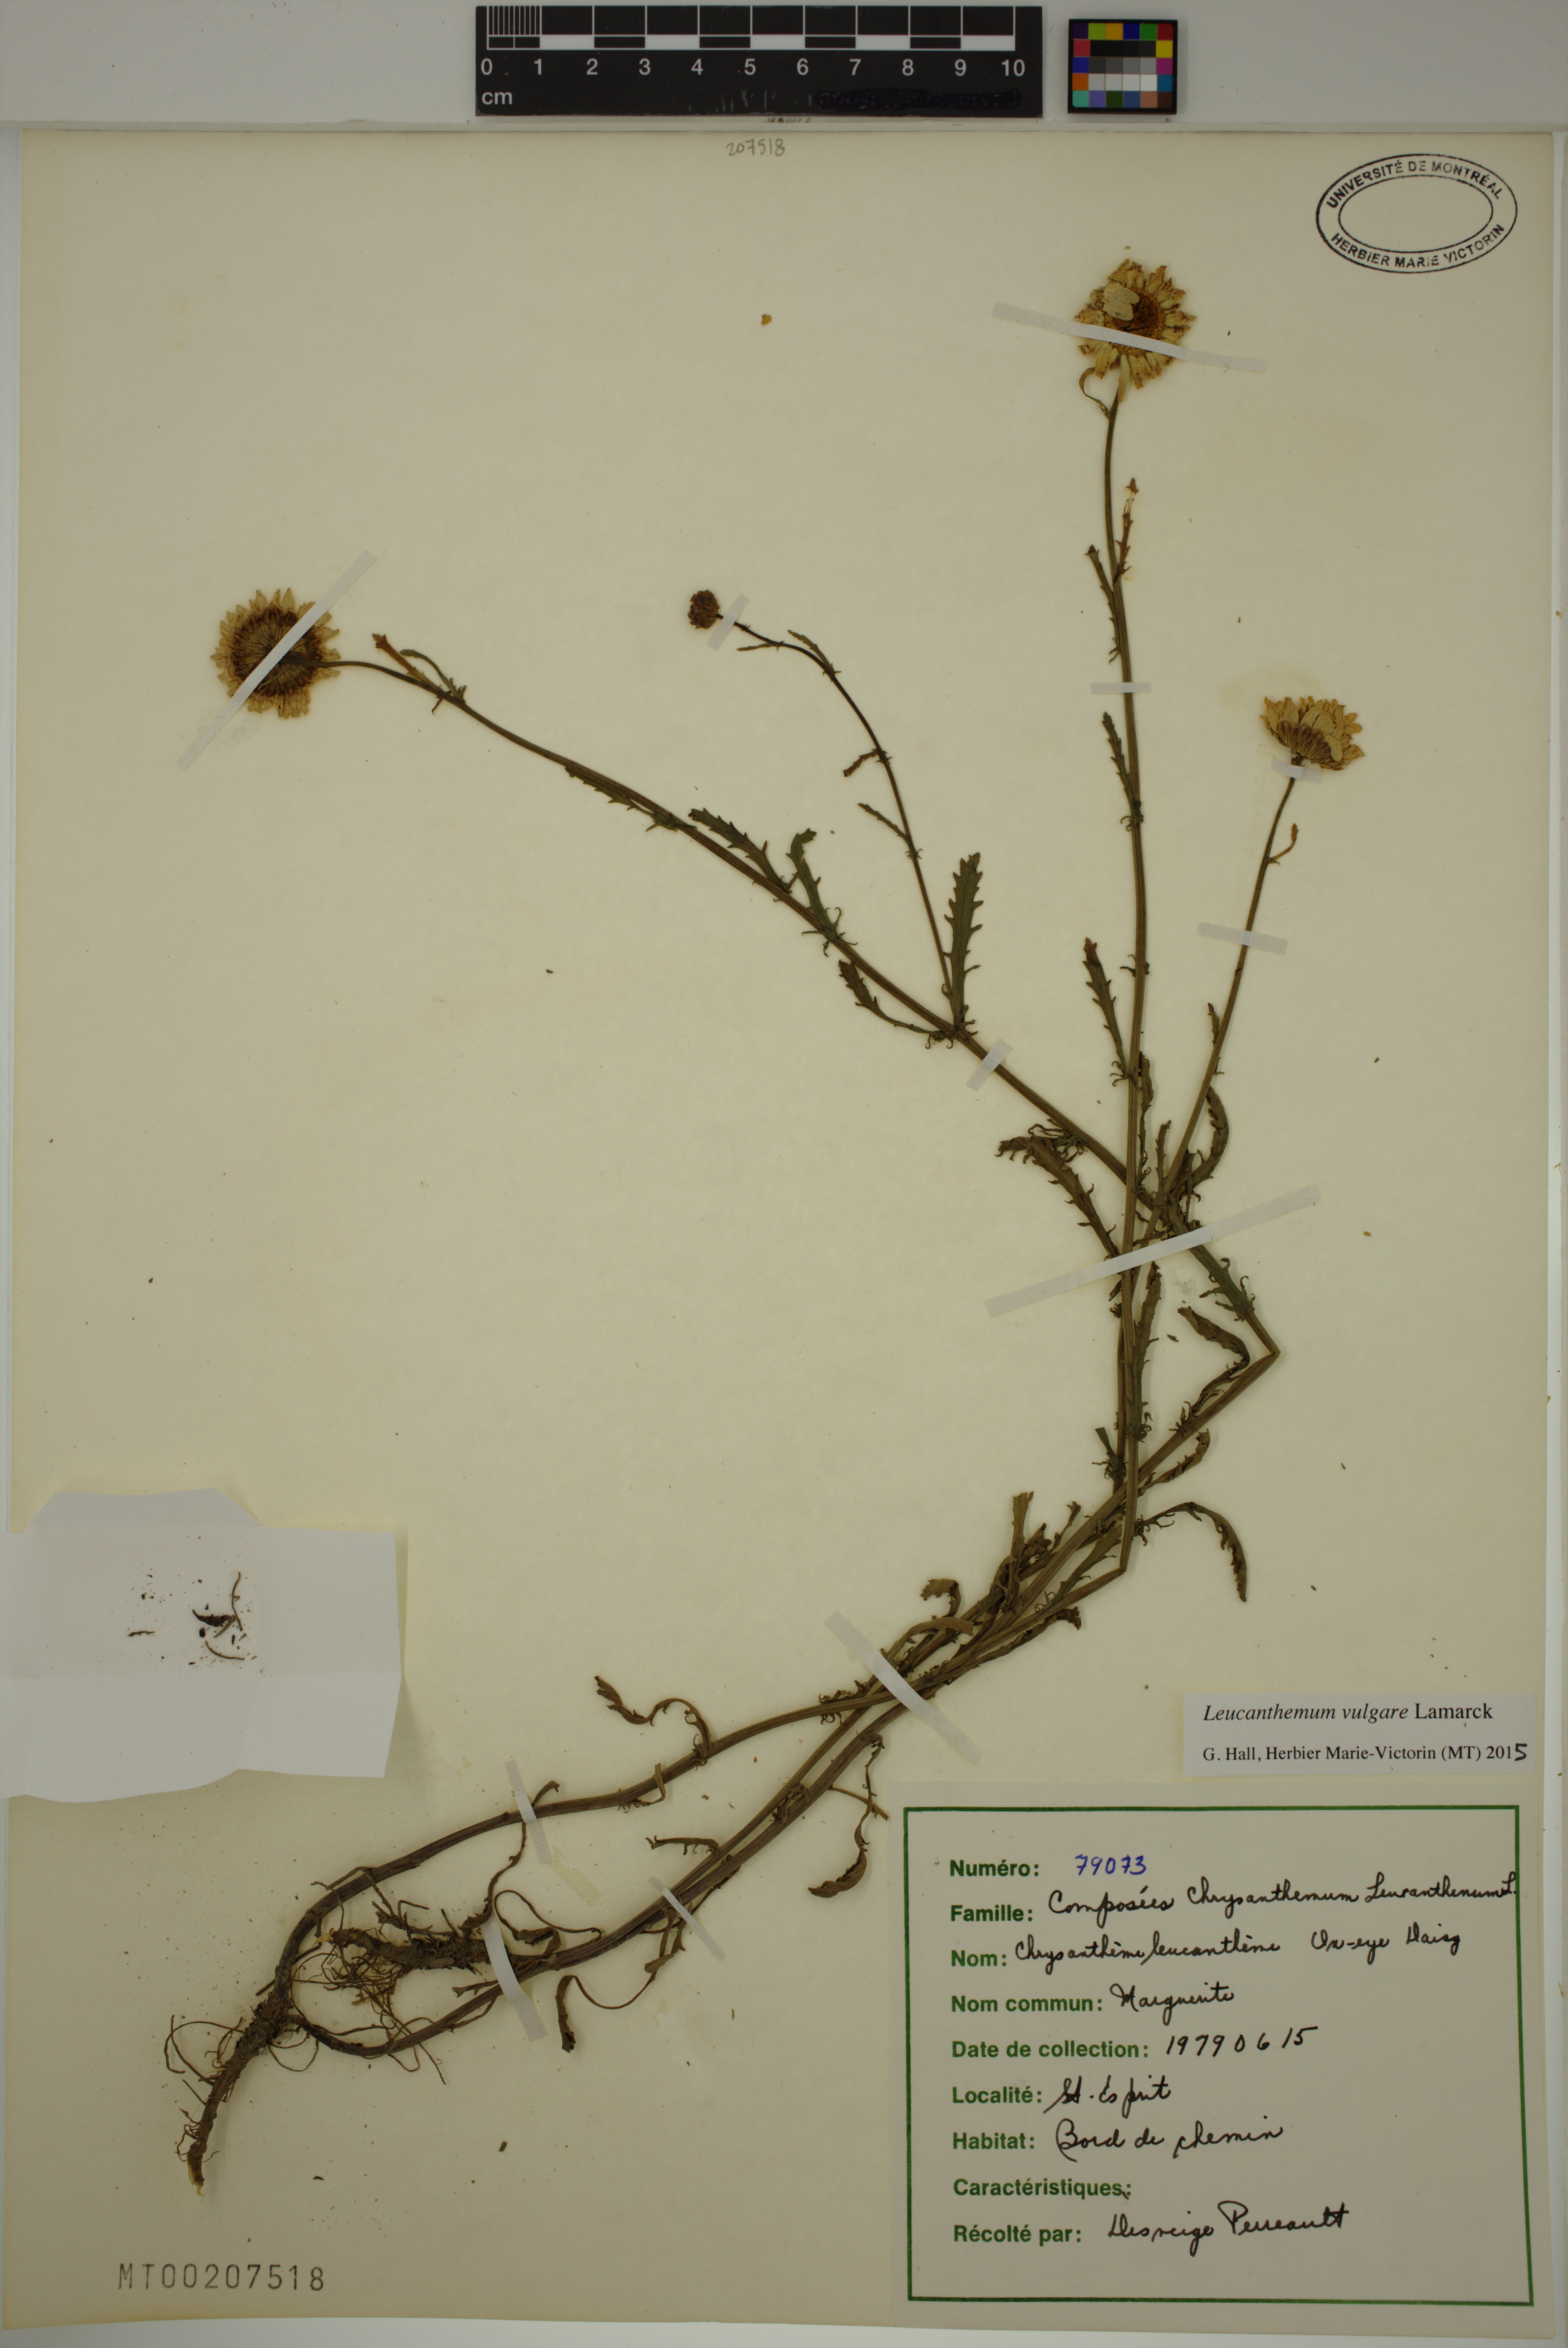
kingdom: Plantae
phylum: Tracheophyta
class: Magnoliopsida
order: Asterales
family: Asteraceae
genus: Leucanthemum
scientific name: Leucanthemum vulgare
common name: Oxeye daisy
